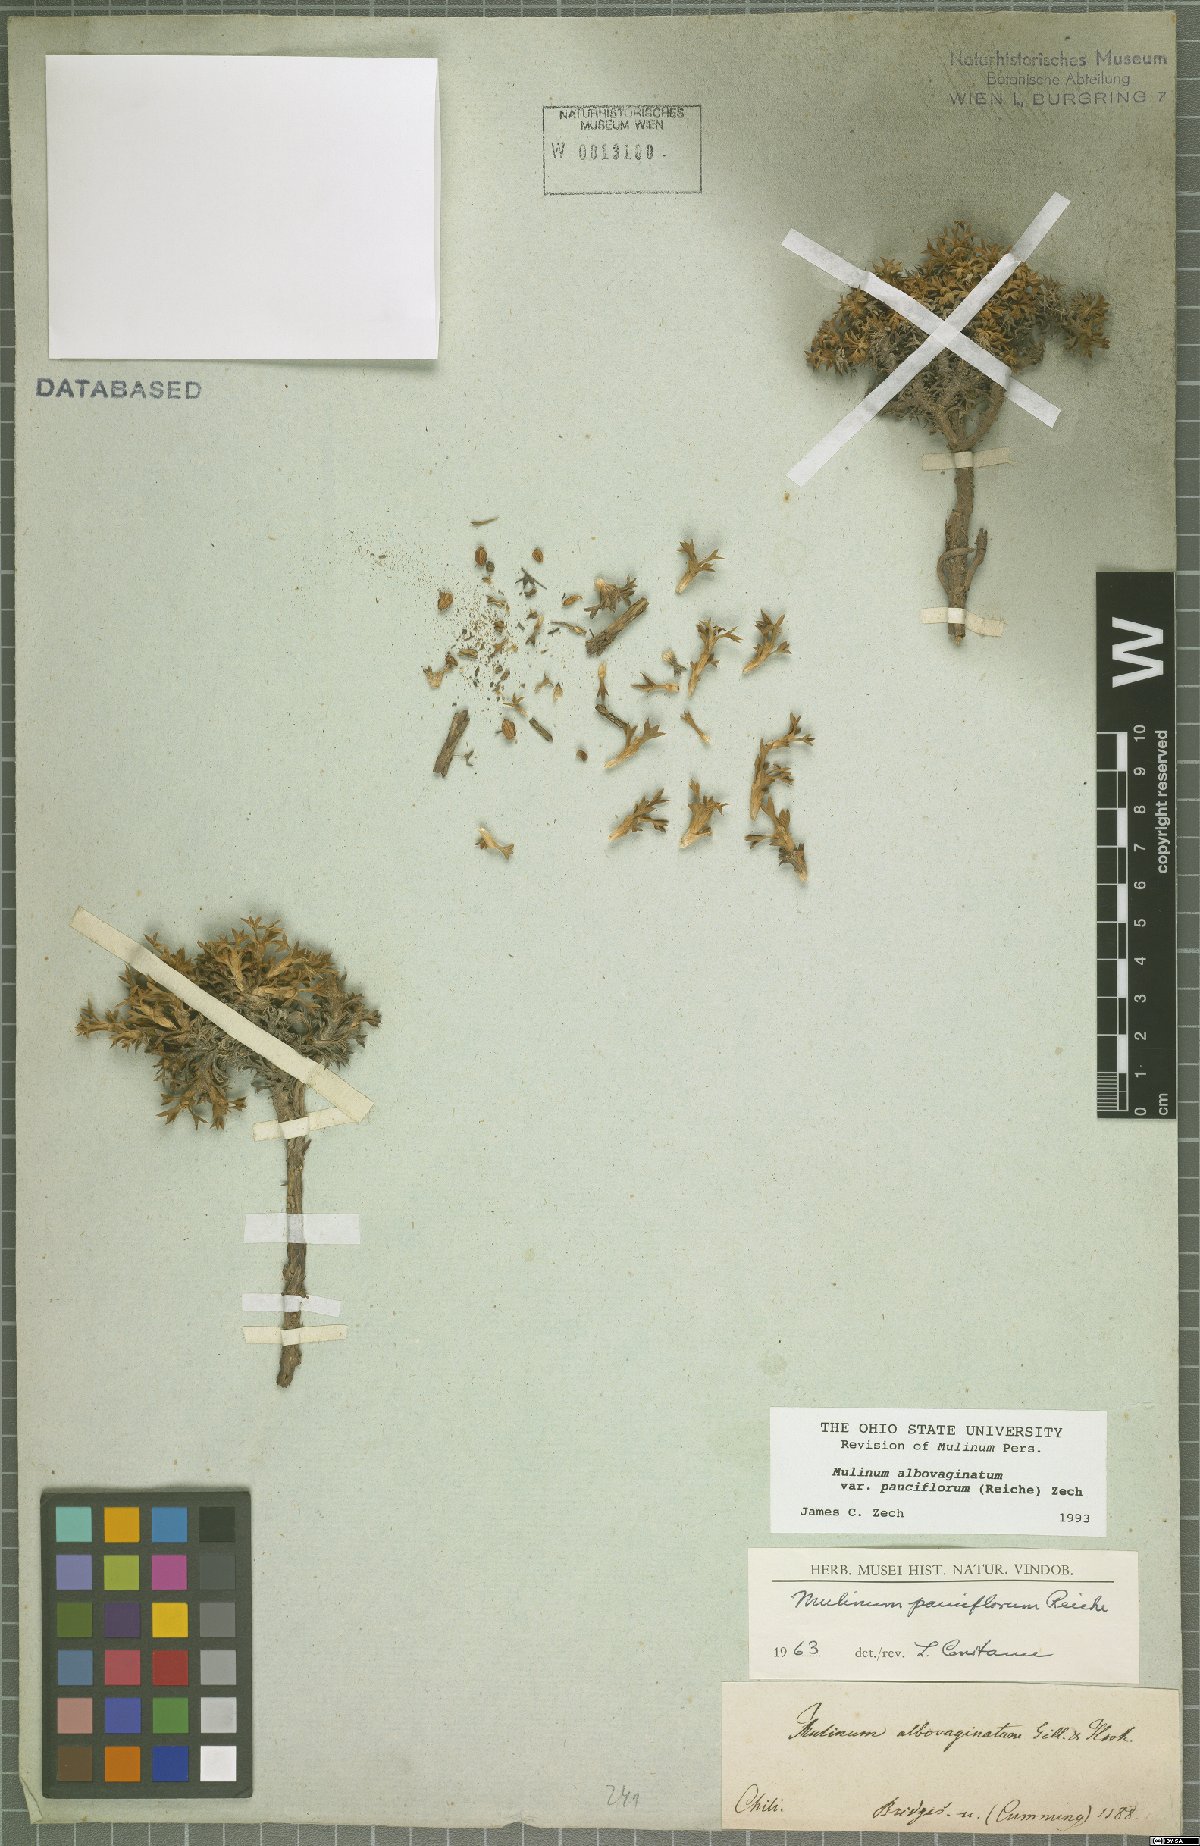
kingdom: Plantae
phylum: Tracheophyta
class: Magnoliopsida
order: Apiales
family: Apiaceae
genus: Azorella
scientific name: Azorella albovaginata
